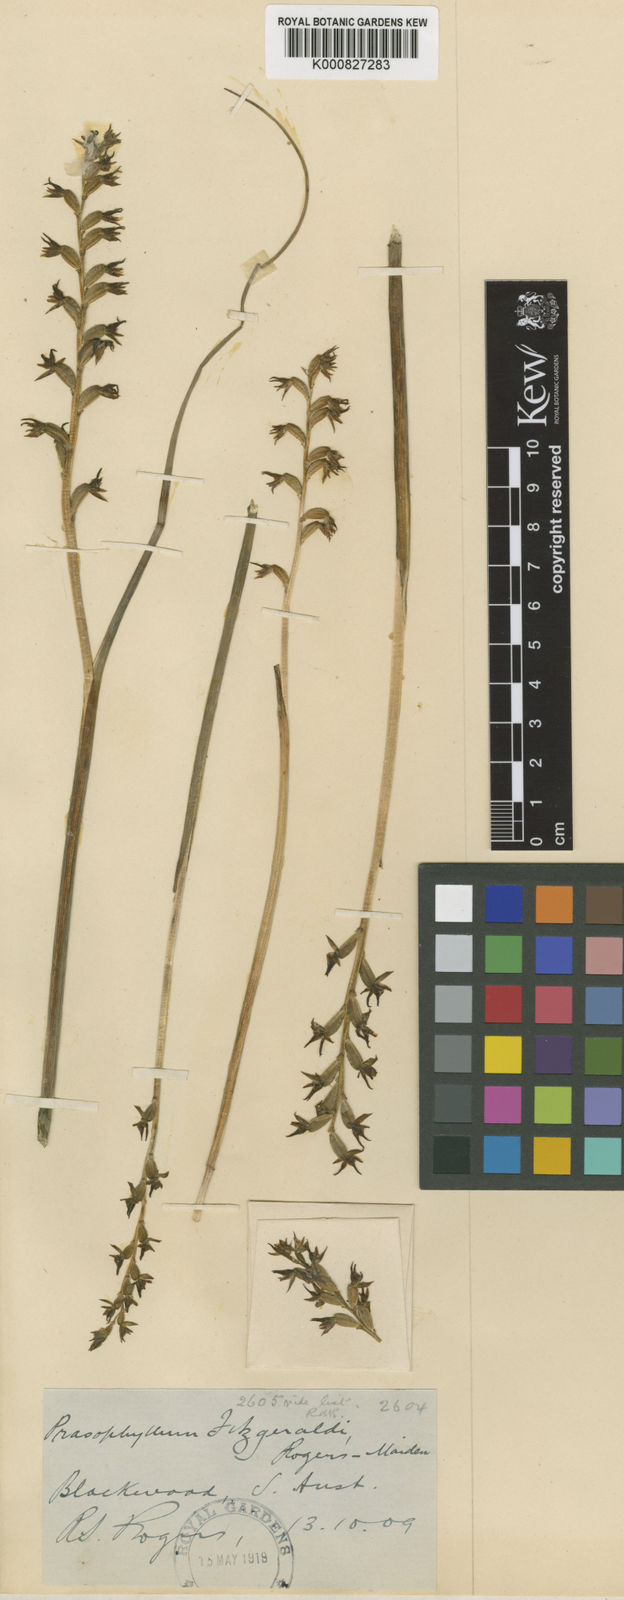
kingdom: Plantae
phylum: Tracheophyta
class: Liliopsida
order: Asparagales
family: Orchidaceae
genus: Prasophyllum
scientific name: Prasophyllum fitzgeraldii
